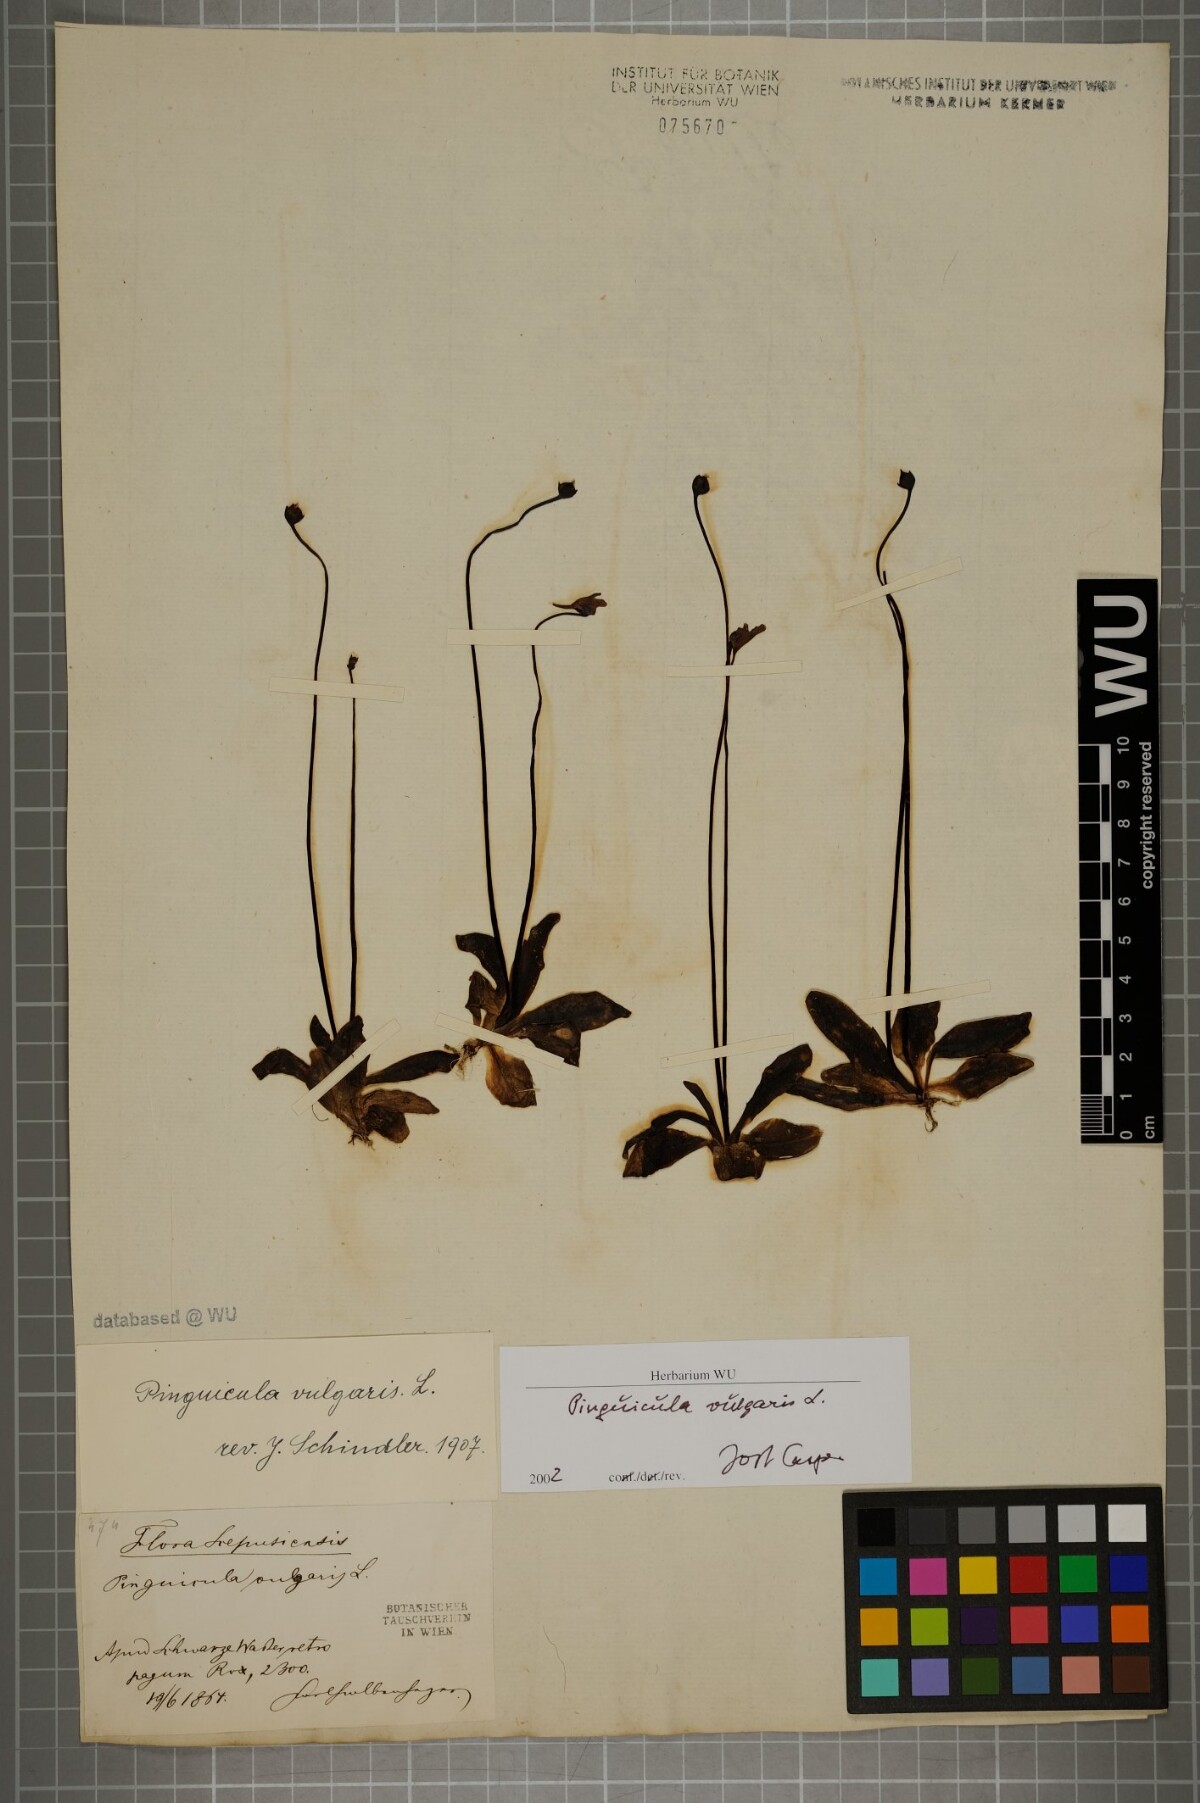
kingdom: Plantae
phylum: Tracheophyta
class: Magnoliopsida
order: Lamiales
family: Lentibulariaceae
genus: Pinguicula
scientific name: Pinguicula vulgaris
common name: Common butterwort
